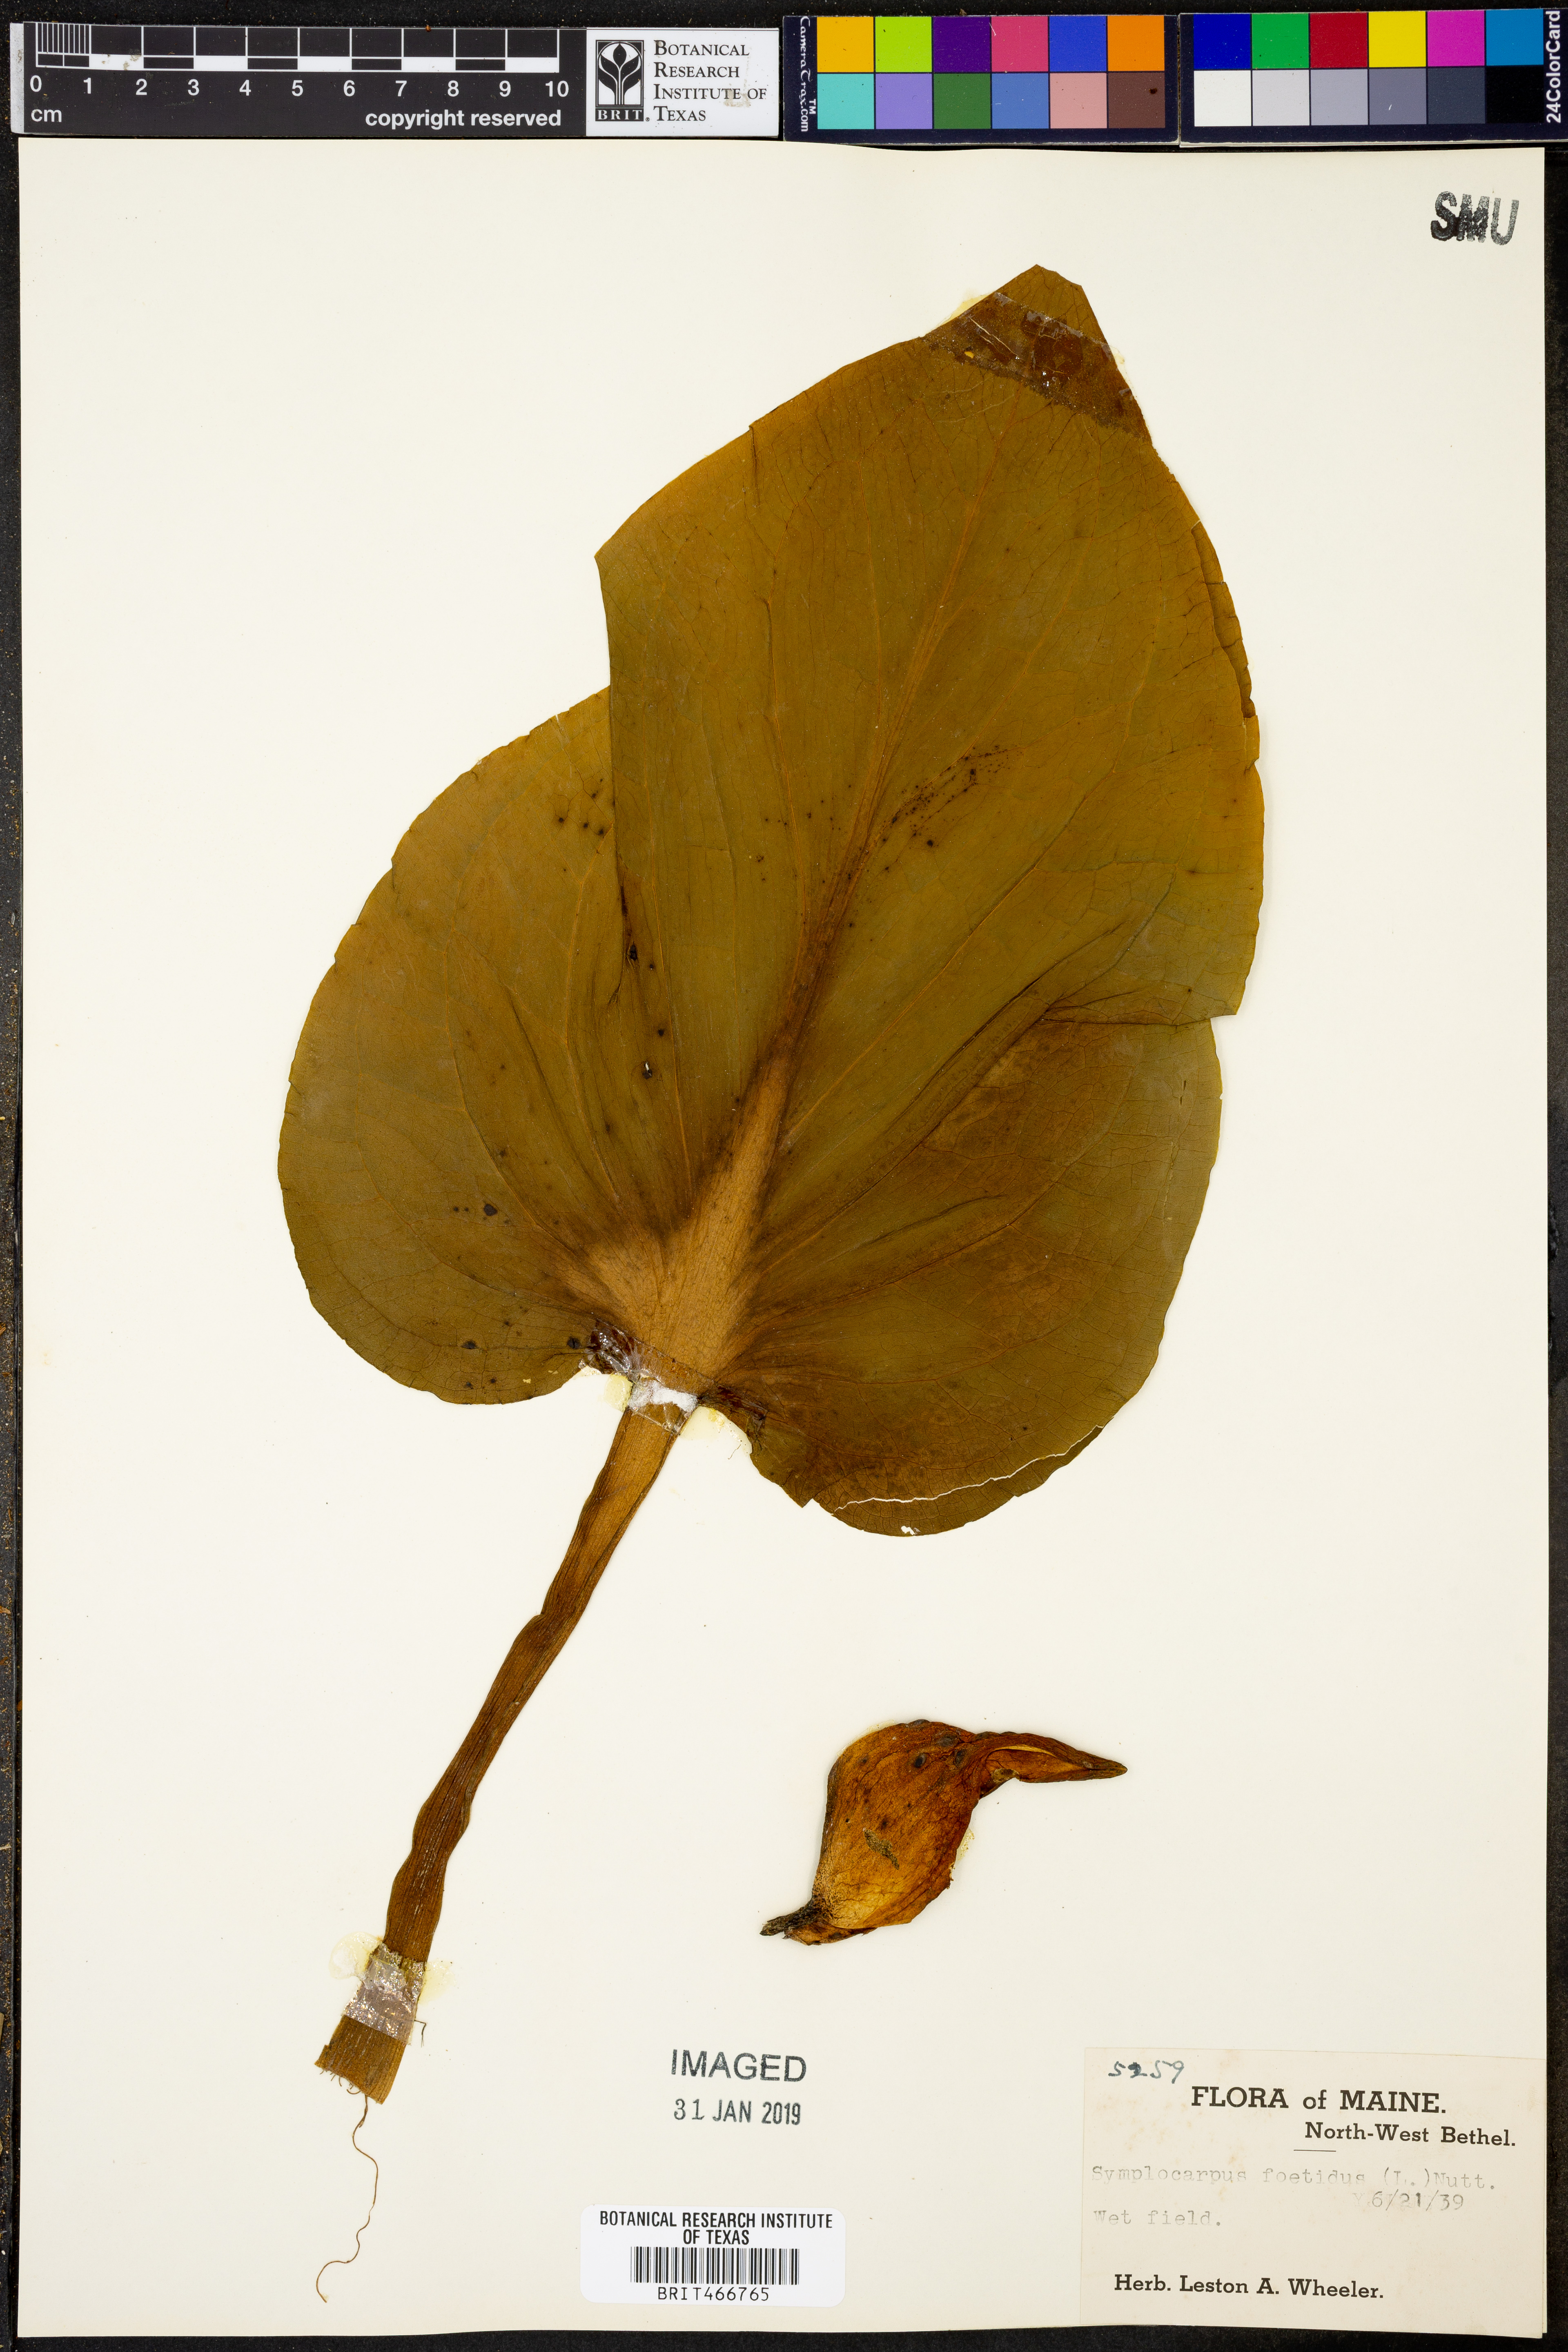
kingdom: Plantae
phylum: Tracheophyta
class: Liliopsida
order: Alismatales
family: Araceae
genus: Symplocarpus
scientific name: Symplocarpus foetidus
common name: Eastern skunk cabbage
